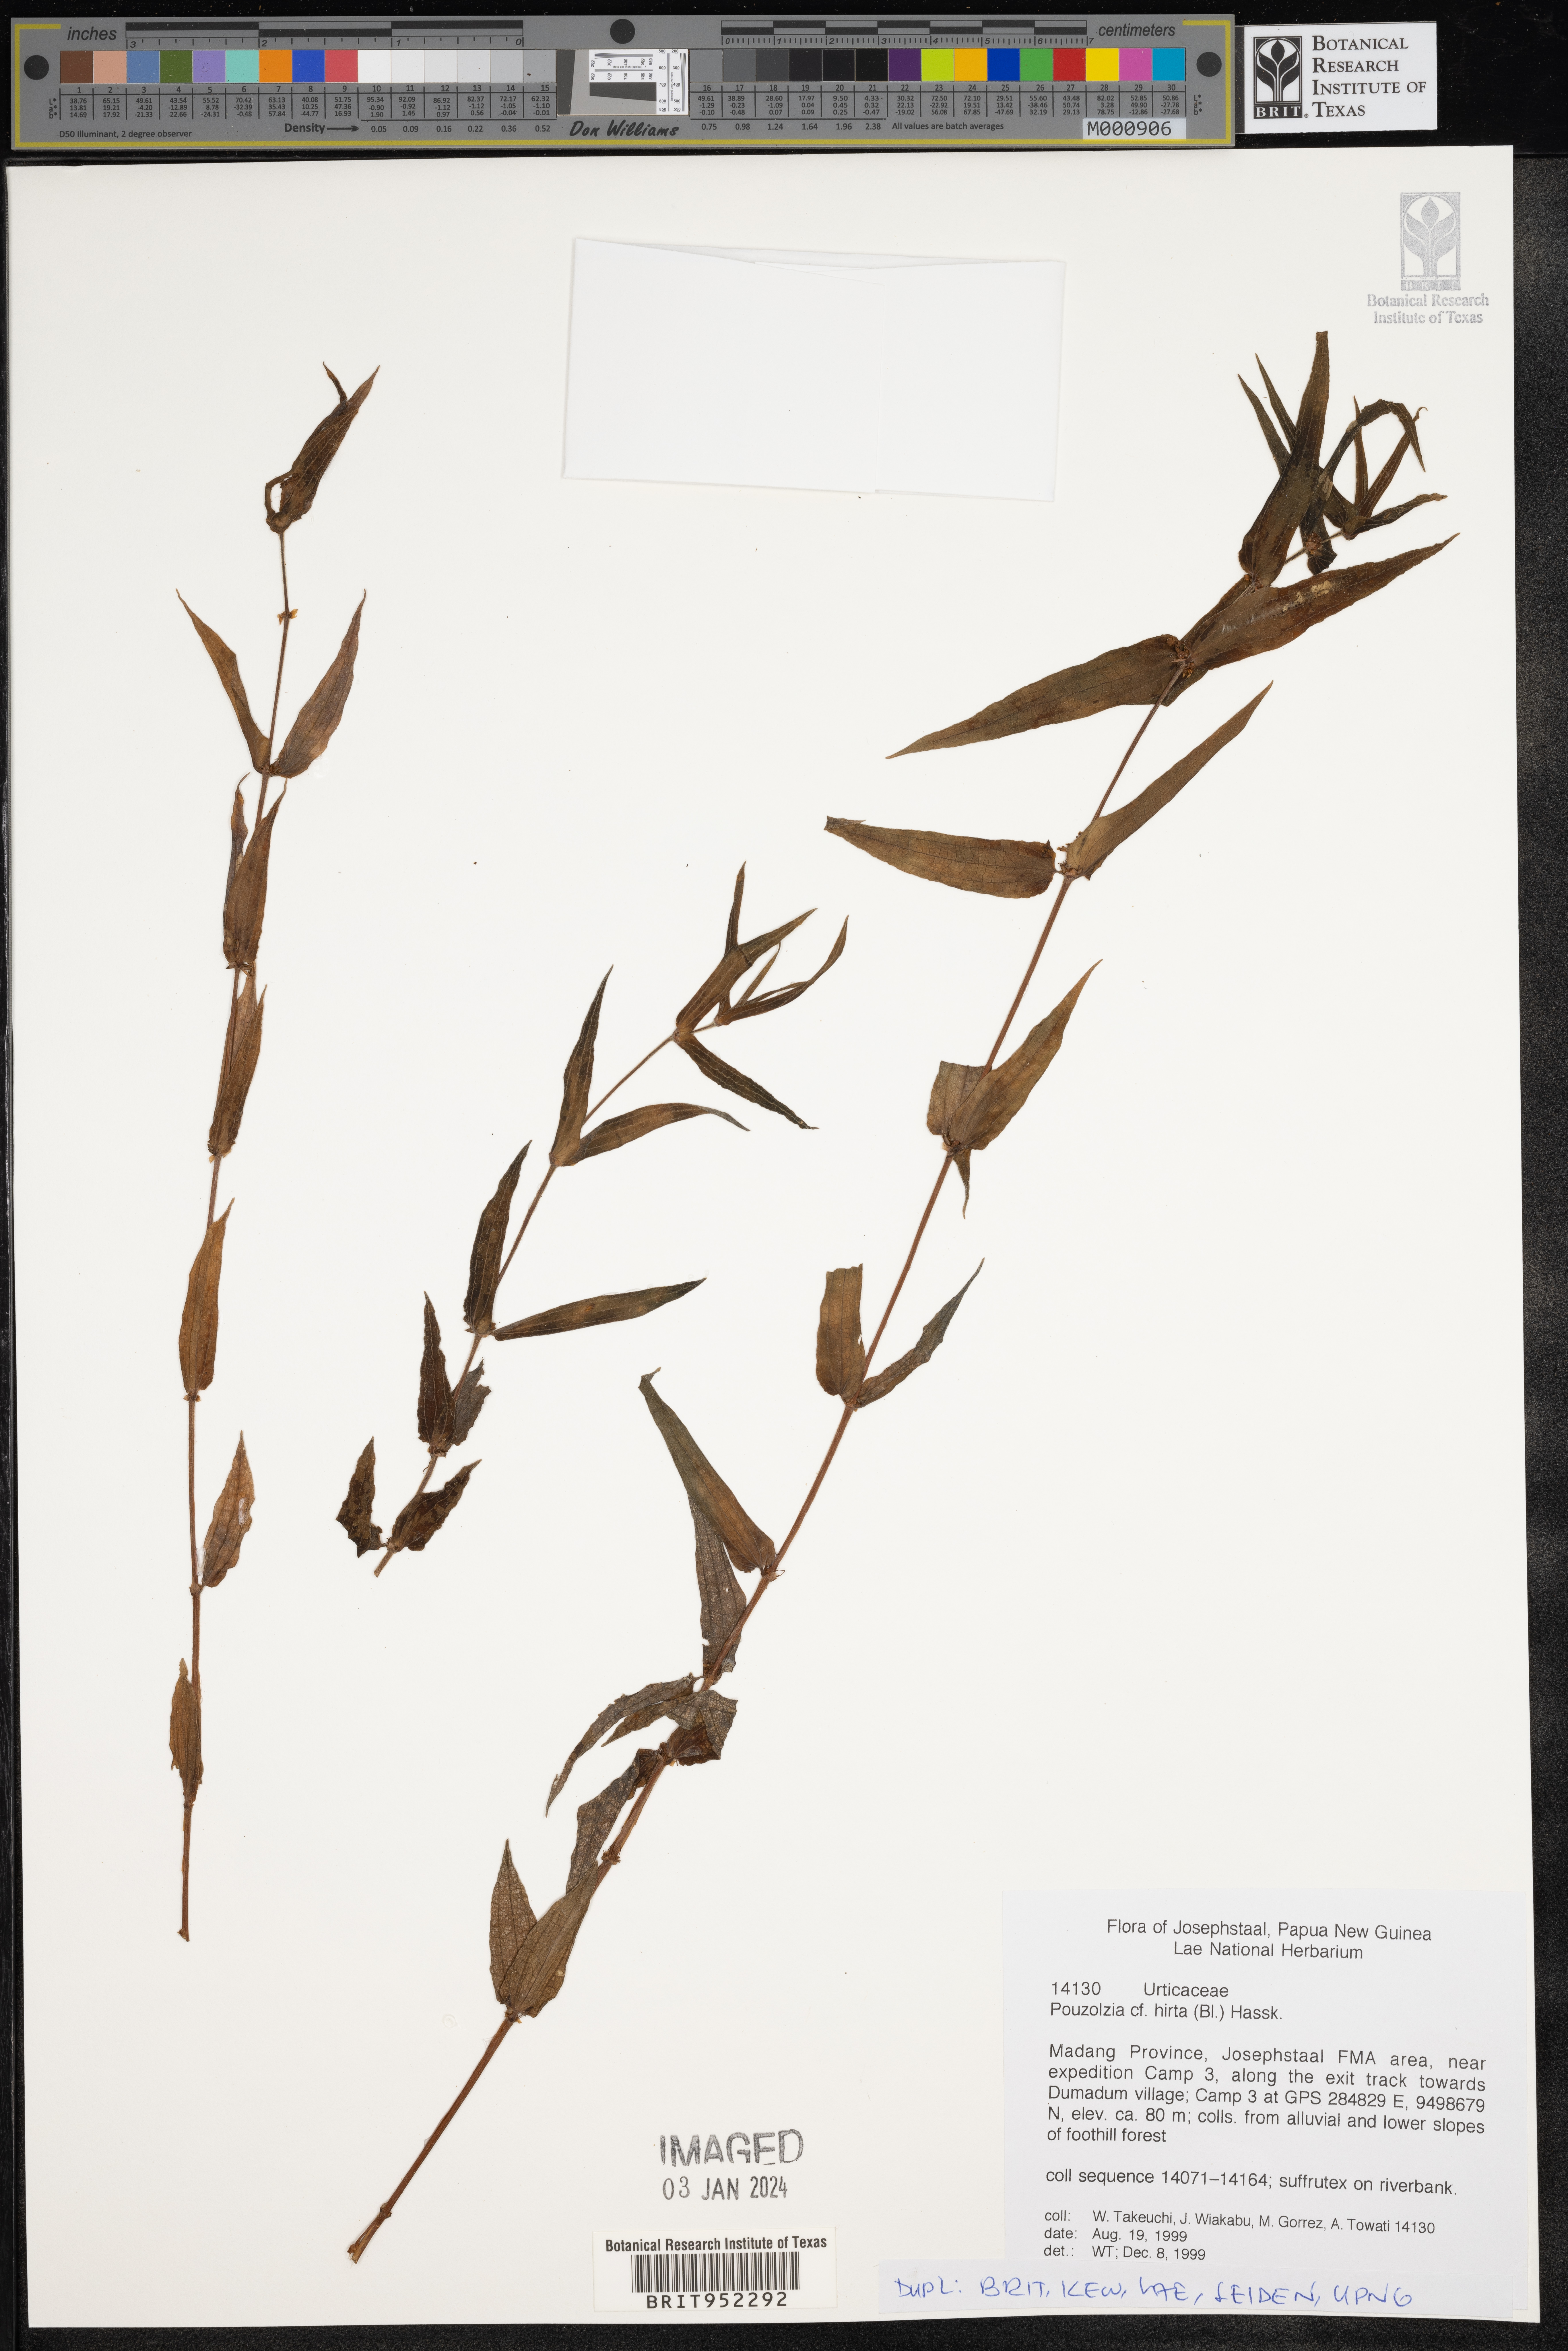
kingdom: Plantae
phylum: Tracheophyta
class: Magnoliopsida
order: Rosales
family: Urticaceae
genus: Pouzolzia
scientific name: Pouzolzia
